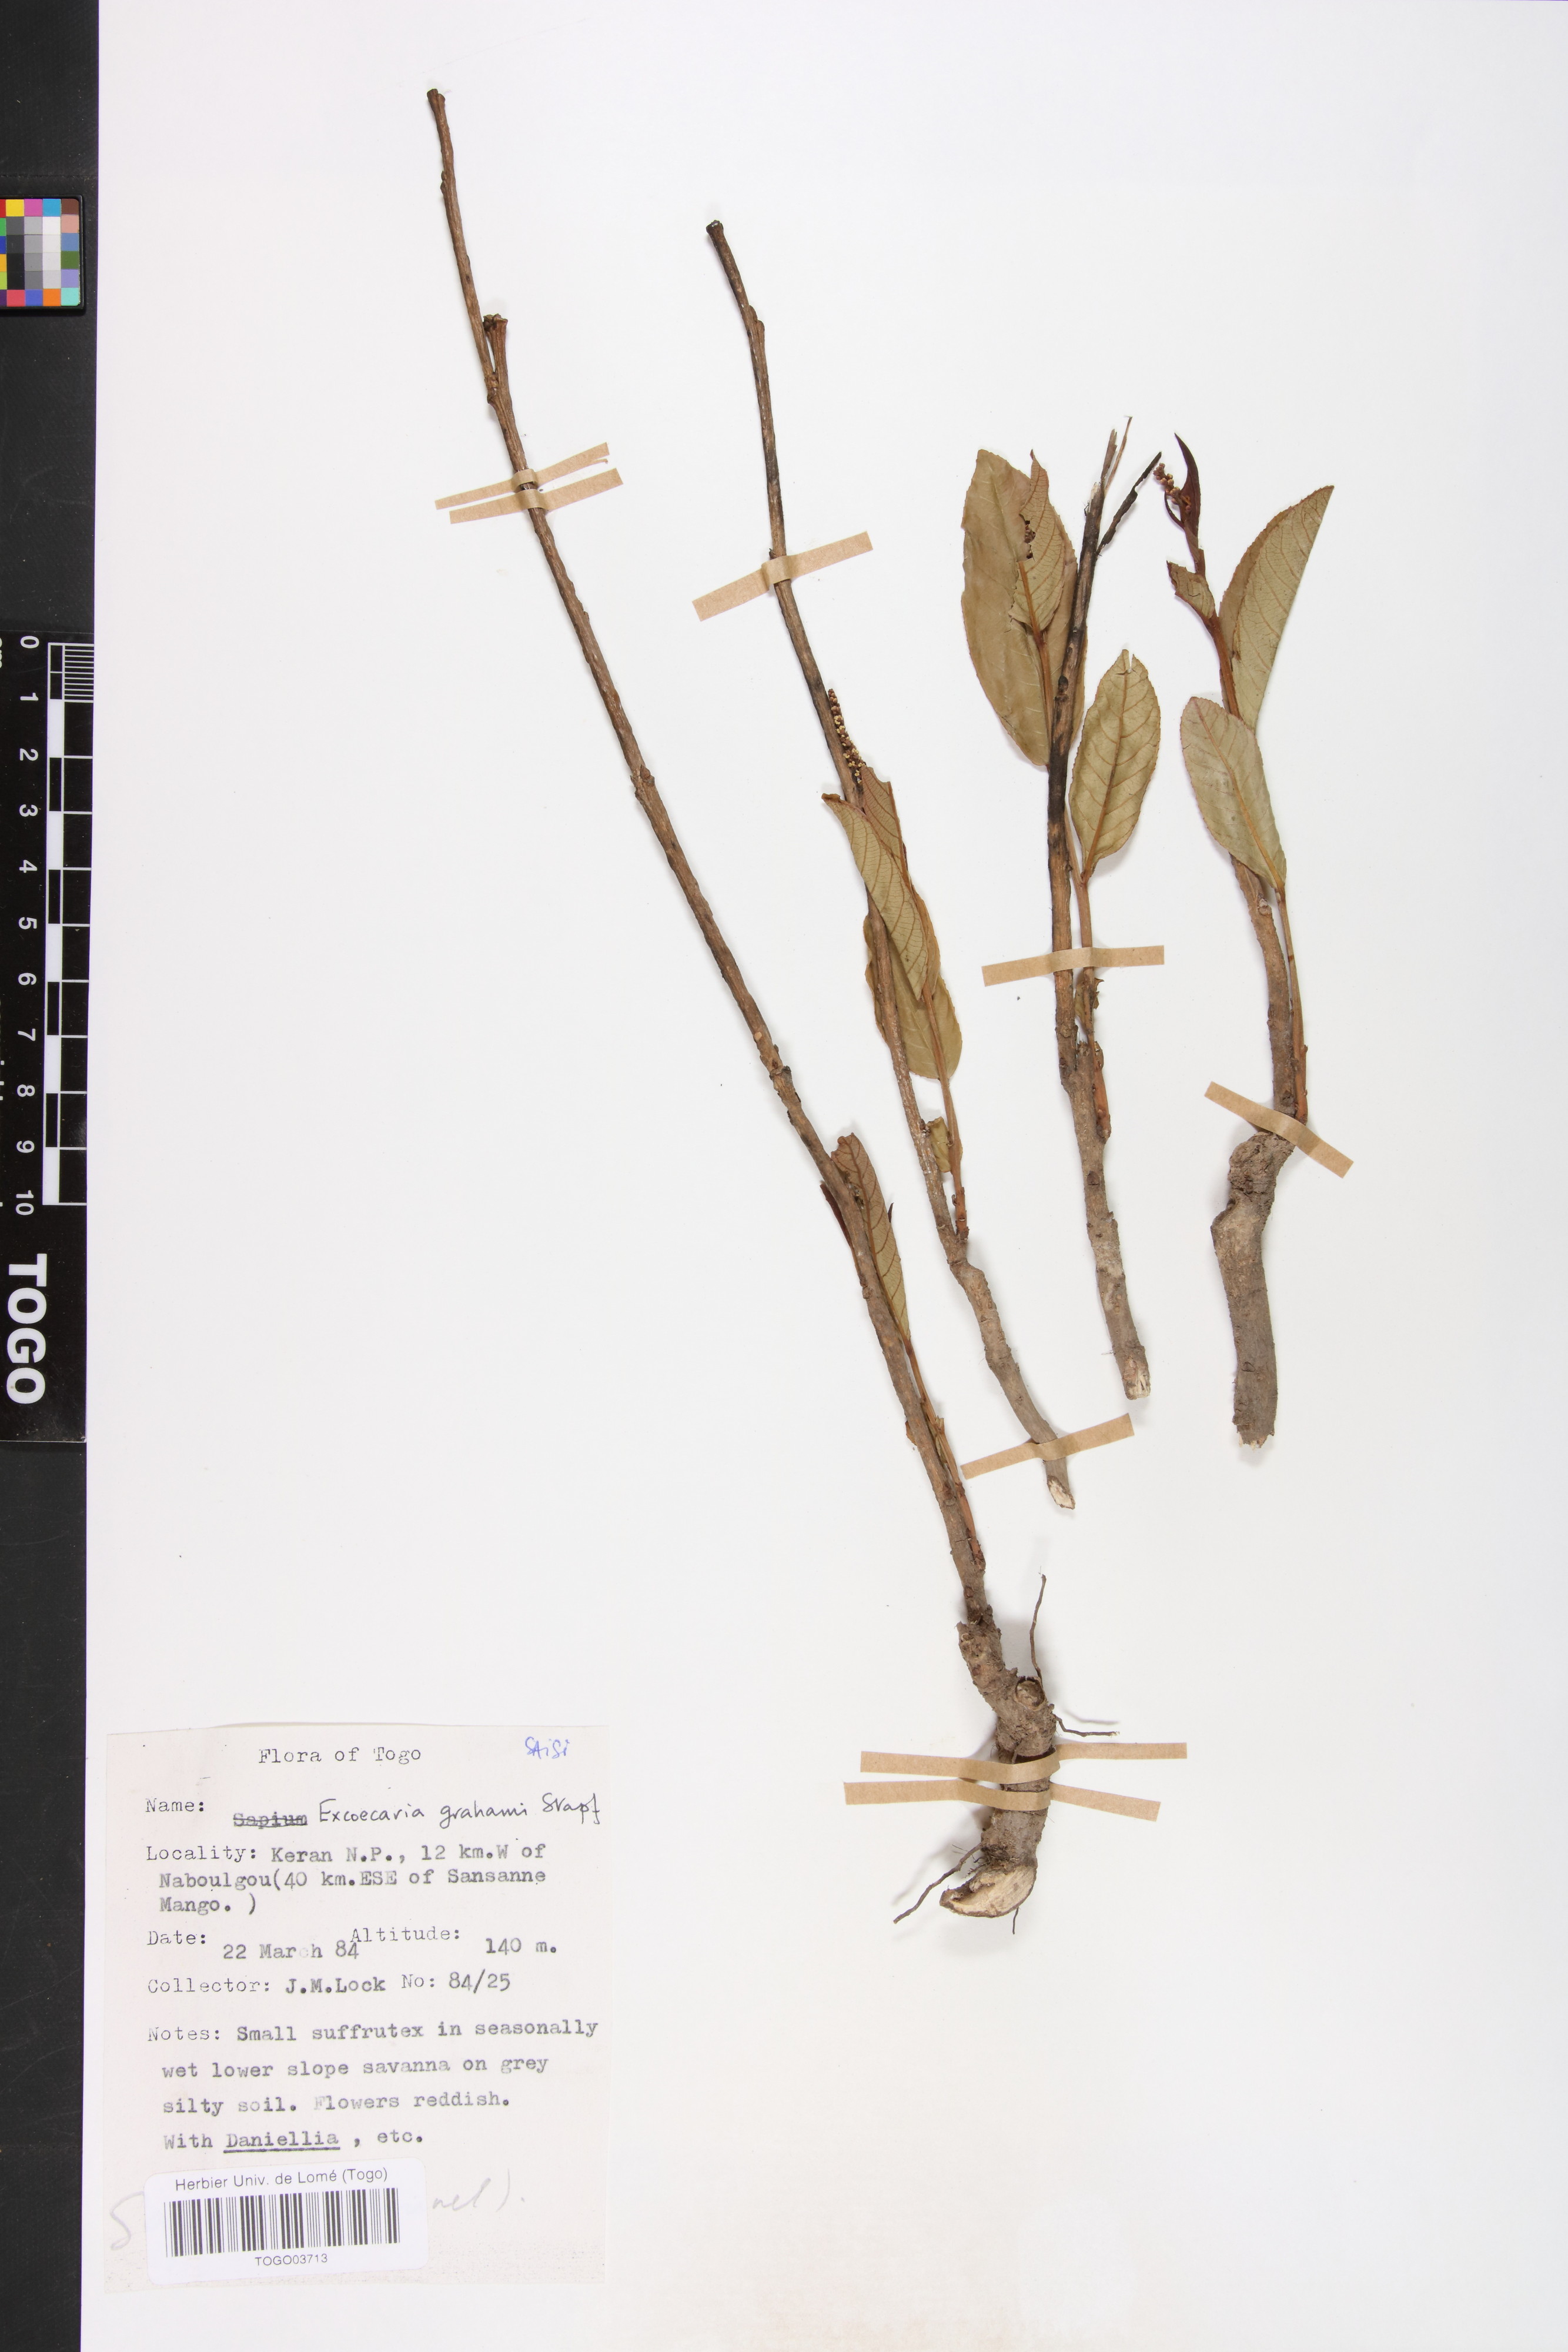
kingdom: Plantae
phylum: Tracheophyta
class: Magnoliopsida
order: Malpighiales
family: Euphorbiaceae
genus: Excoecaria
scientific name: Excoecaria grahamii
